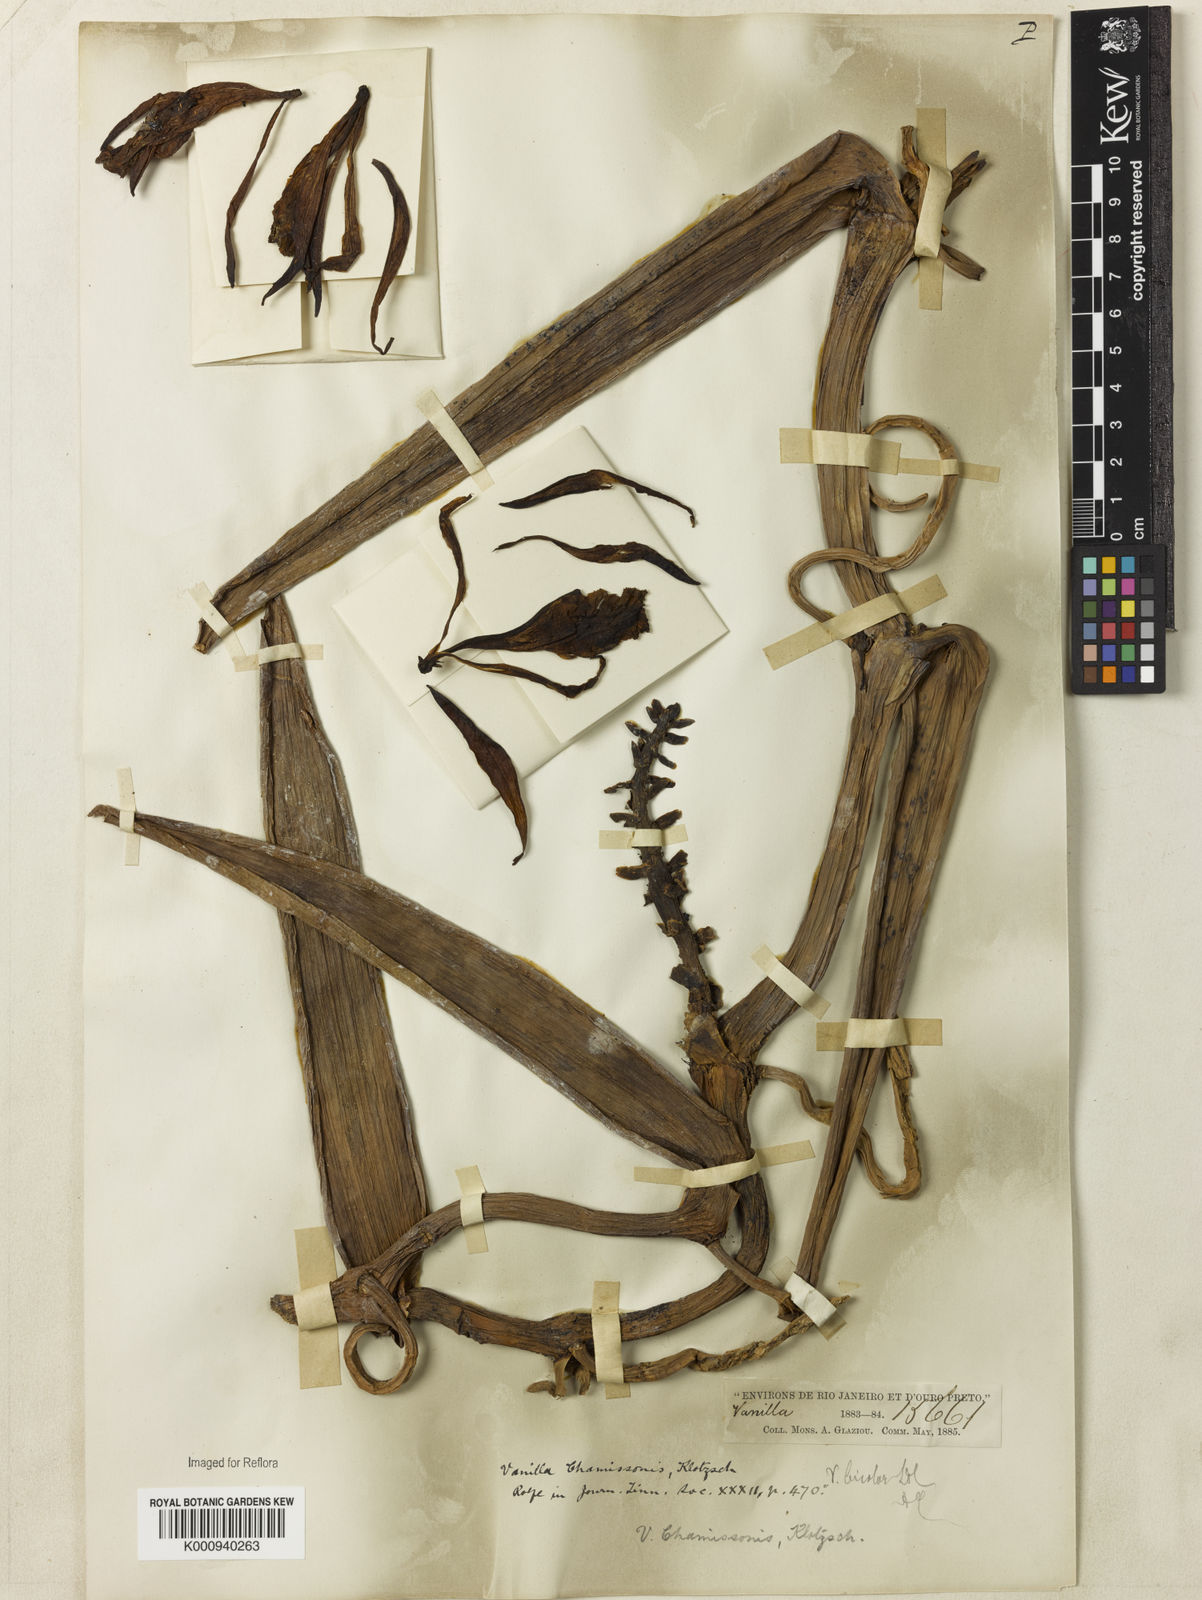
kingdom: Plantae
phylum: Tracheophyta
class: Liliopsida
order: Asparagales
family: Orchidaceae
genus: Vanilla
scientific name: Vanilla chamissonis
